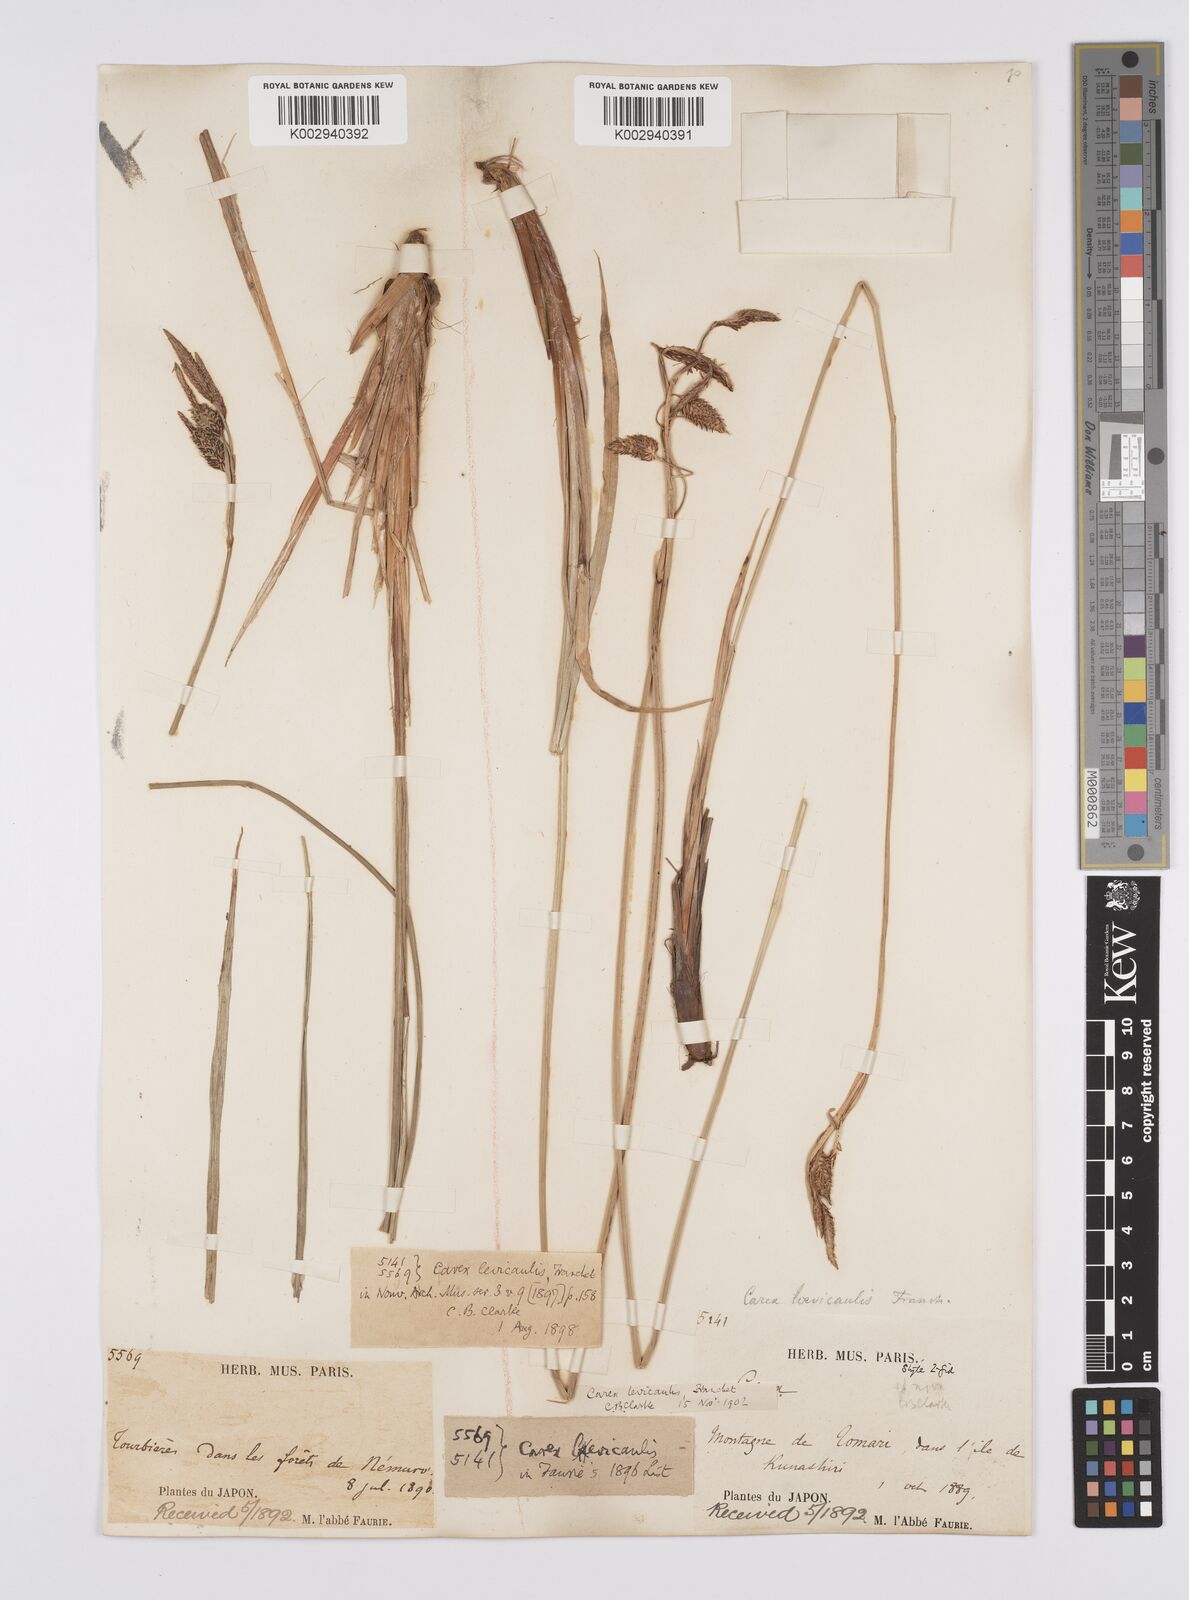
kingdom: Plantae
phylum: Tracheophyta
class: Liliopsida
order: Poales
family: Cyperaceae
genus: Carex
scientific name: Carex middendorffii
